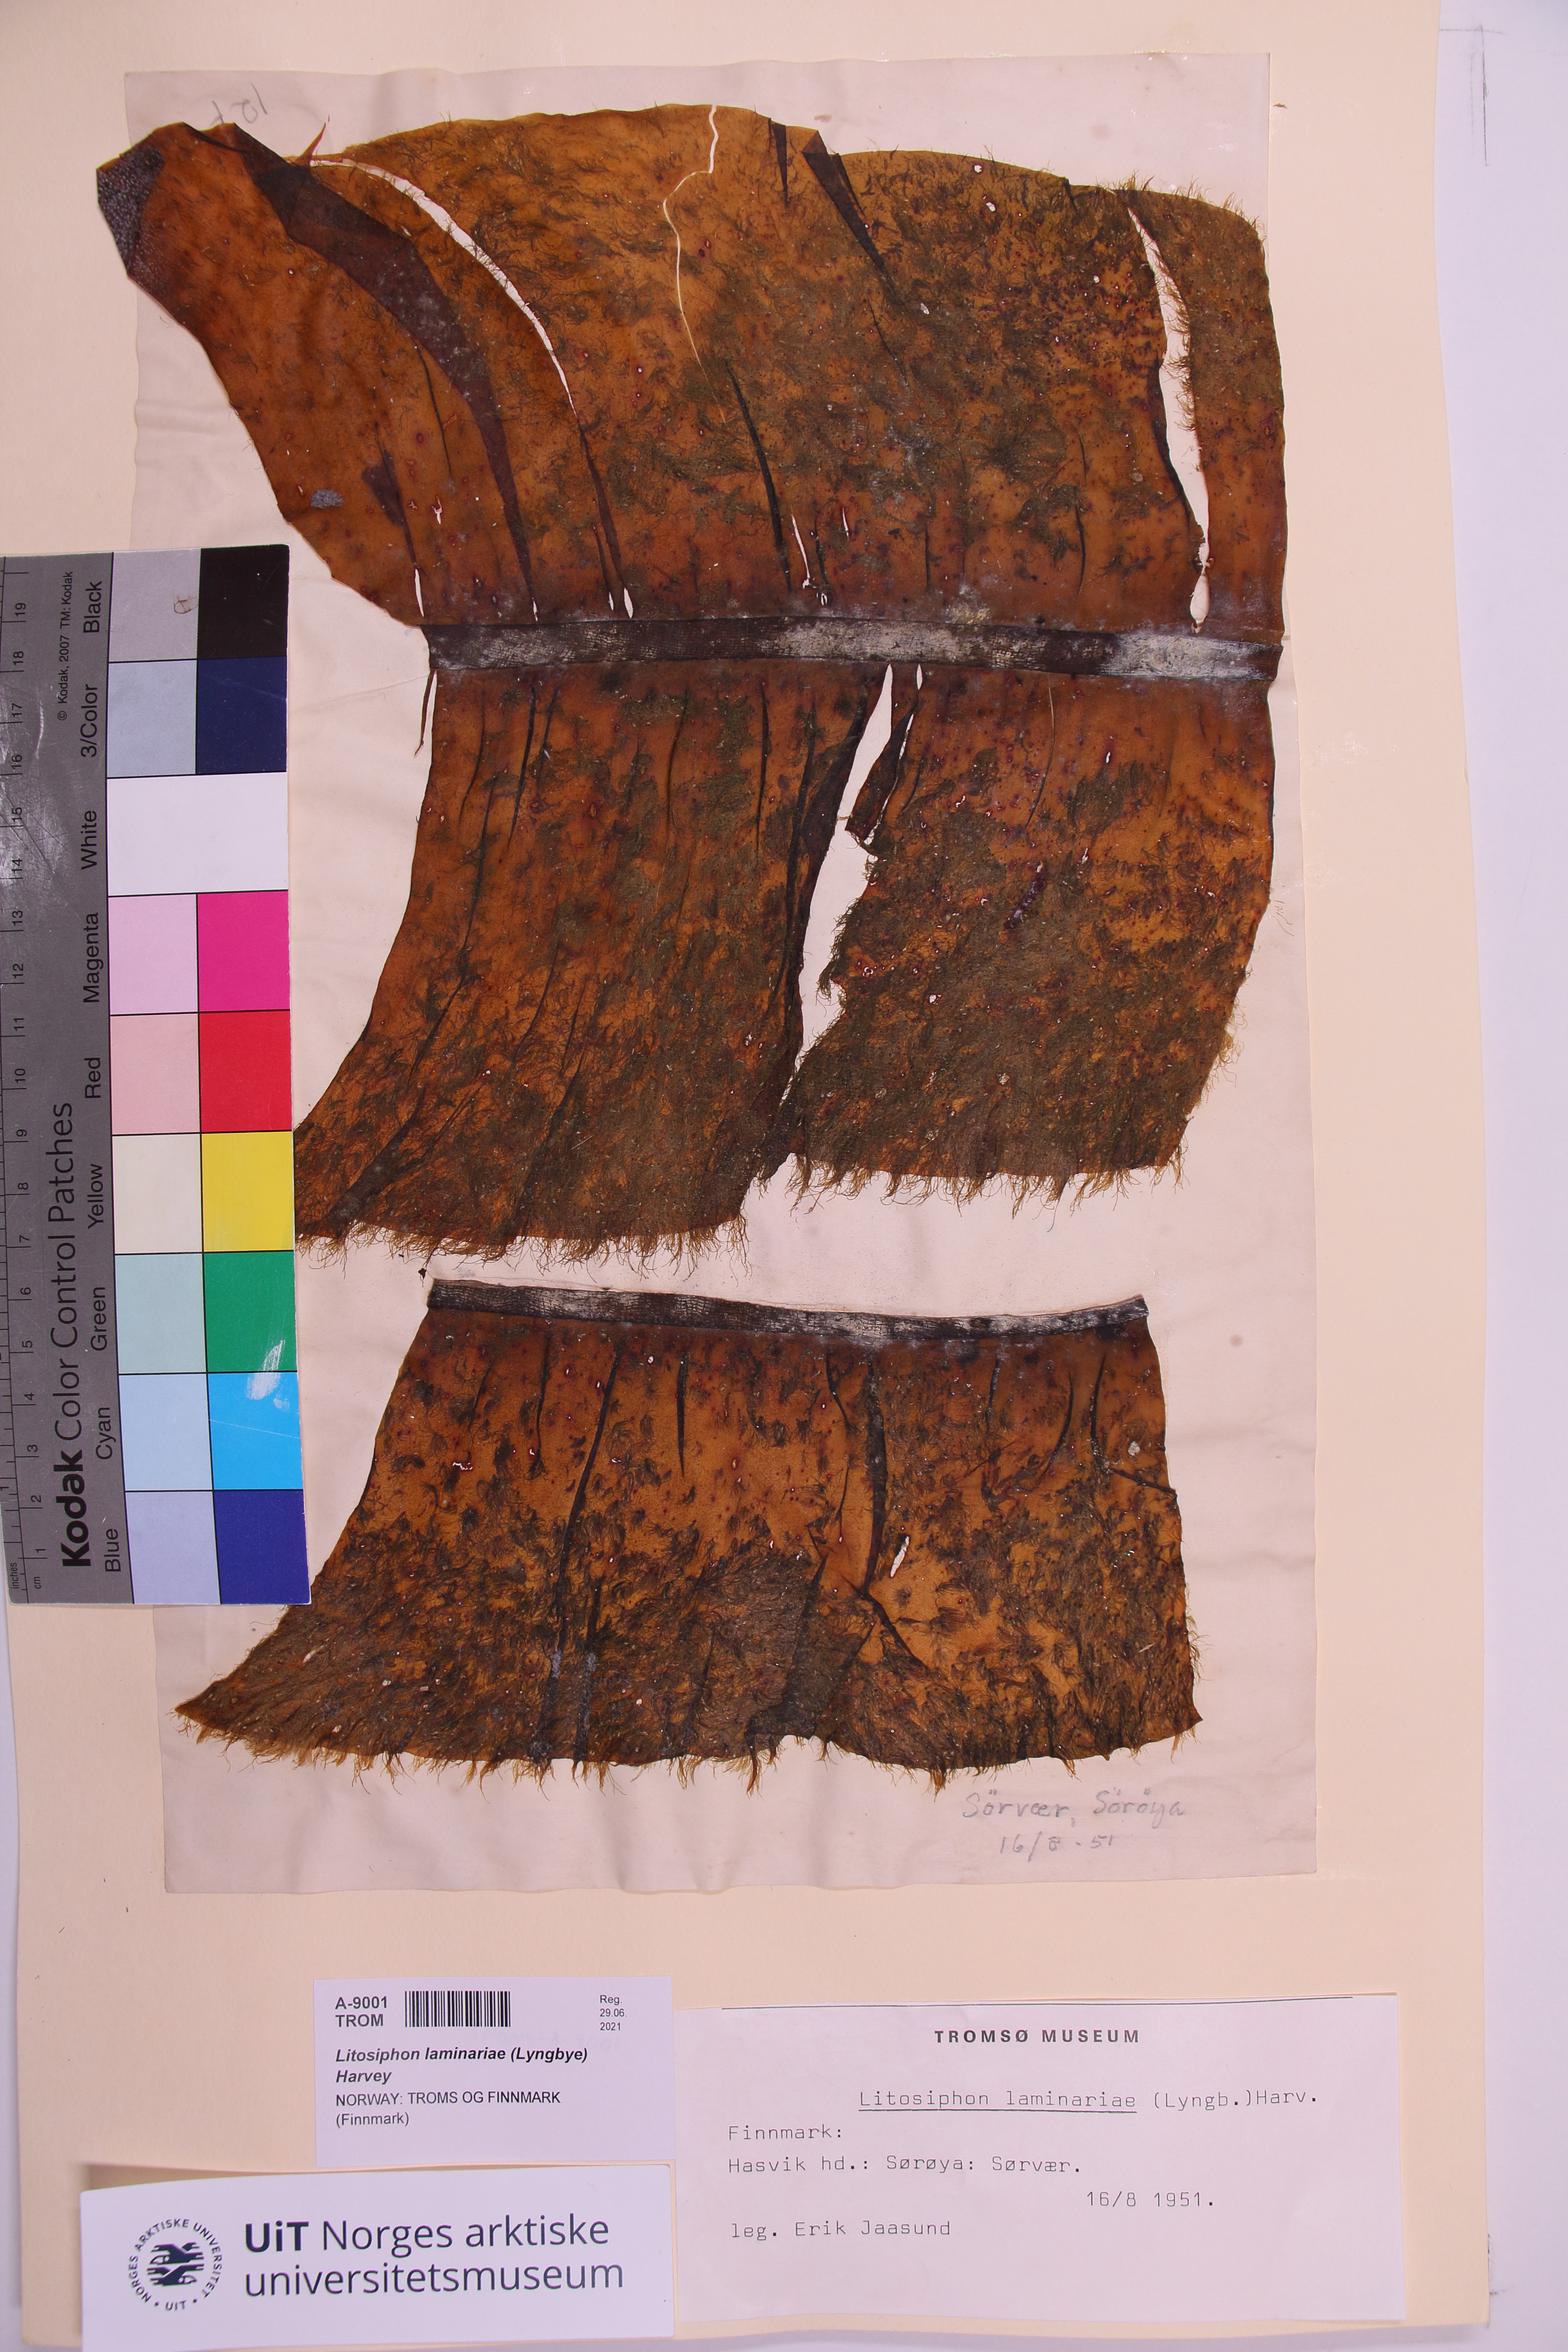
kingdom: Chromista
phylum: Ochrophyta
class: Phaeophyceae
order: Ectocarpales
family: Chordariaceae
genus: Litosiphon
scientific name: Litosiphon laminariae
